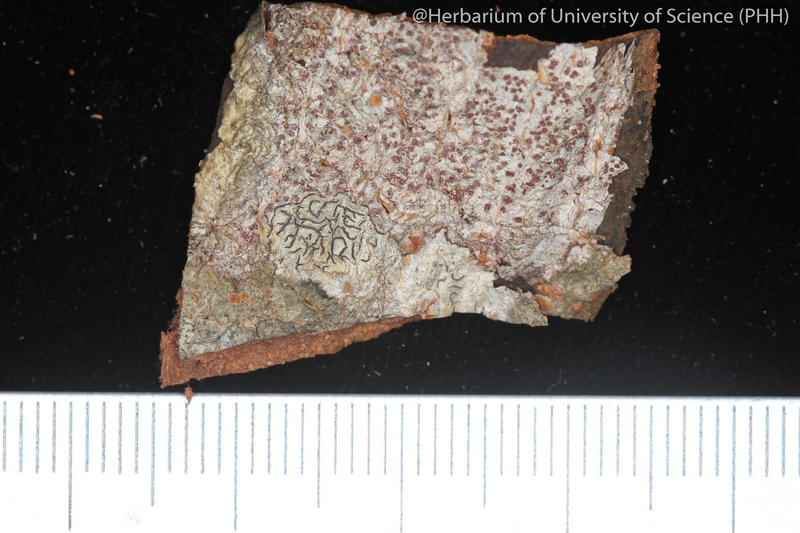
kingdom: Fungi
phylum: Ascomycota
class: Lecanoromycetes
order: Ostropales
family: Graphidaceae
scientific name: Graphidaceae
